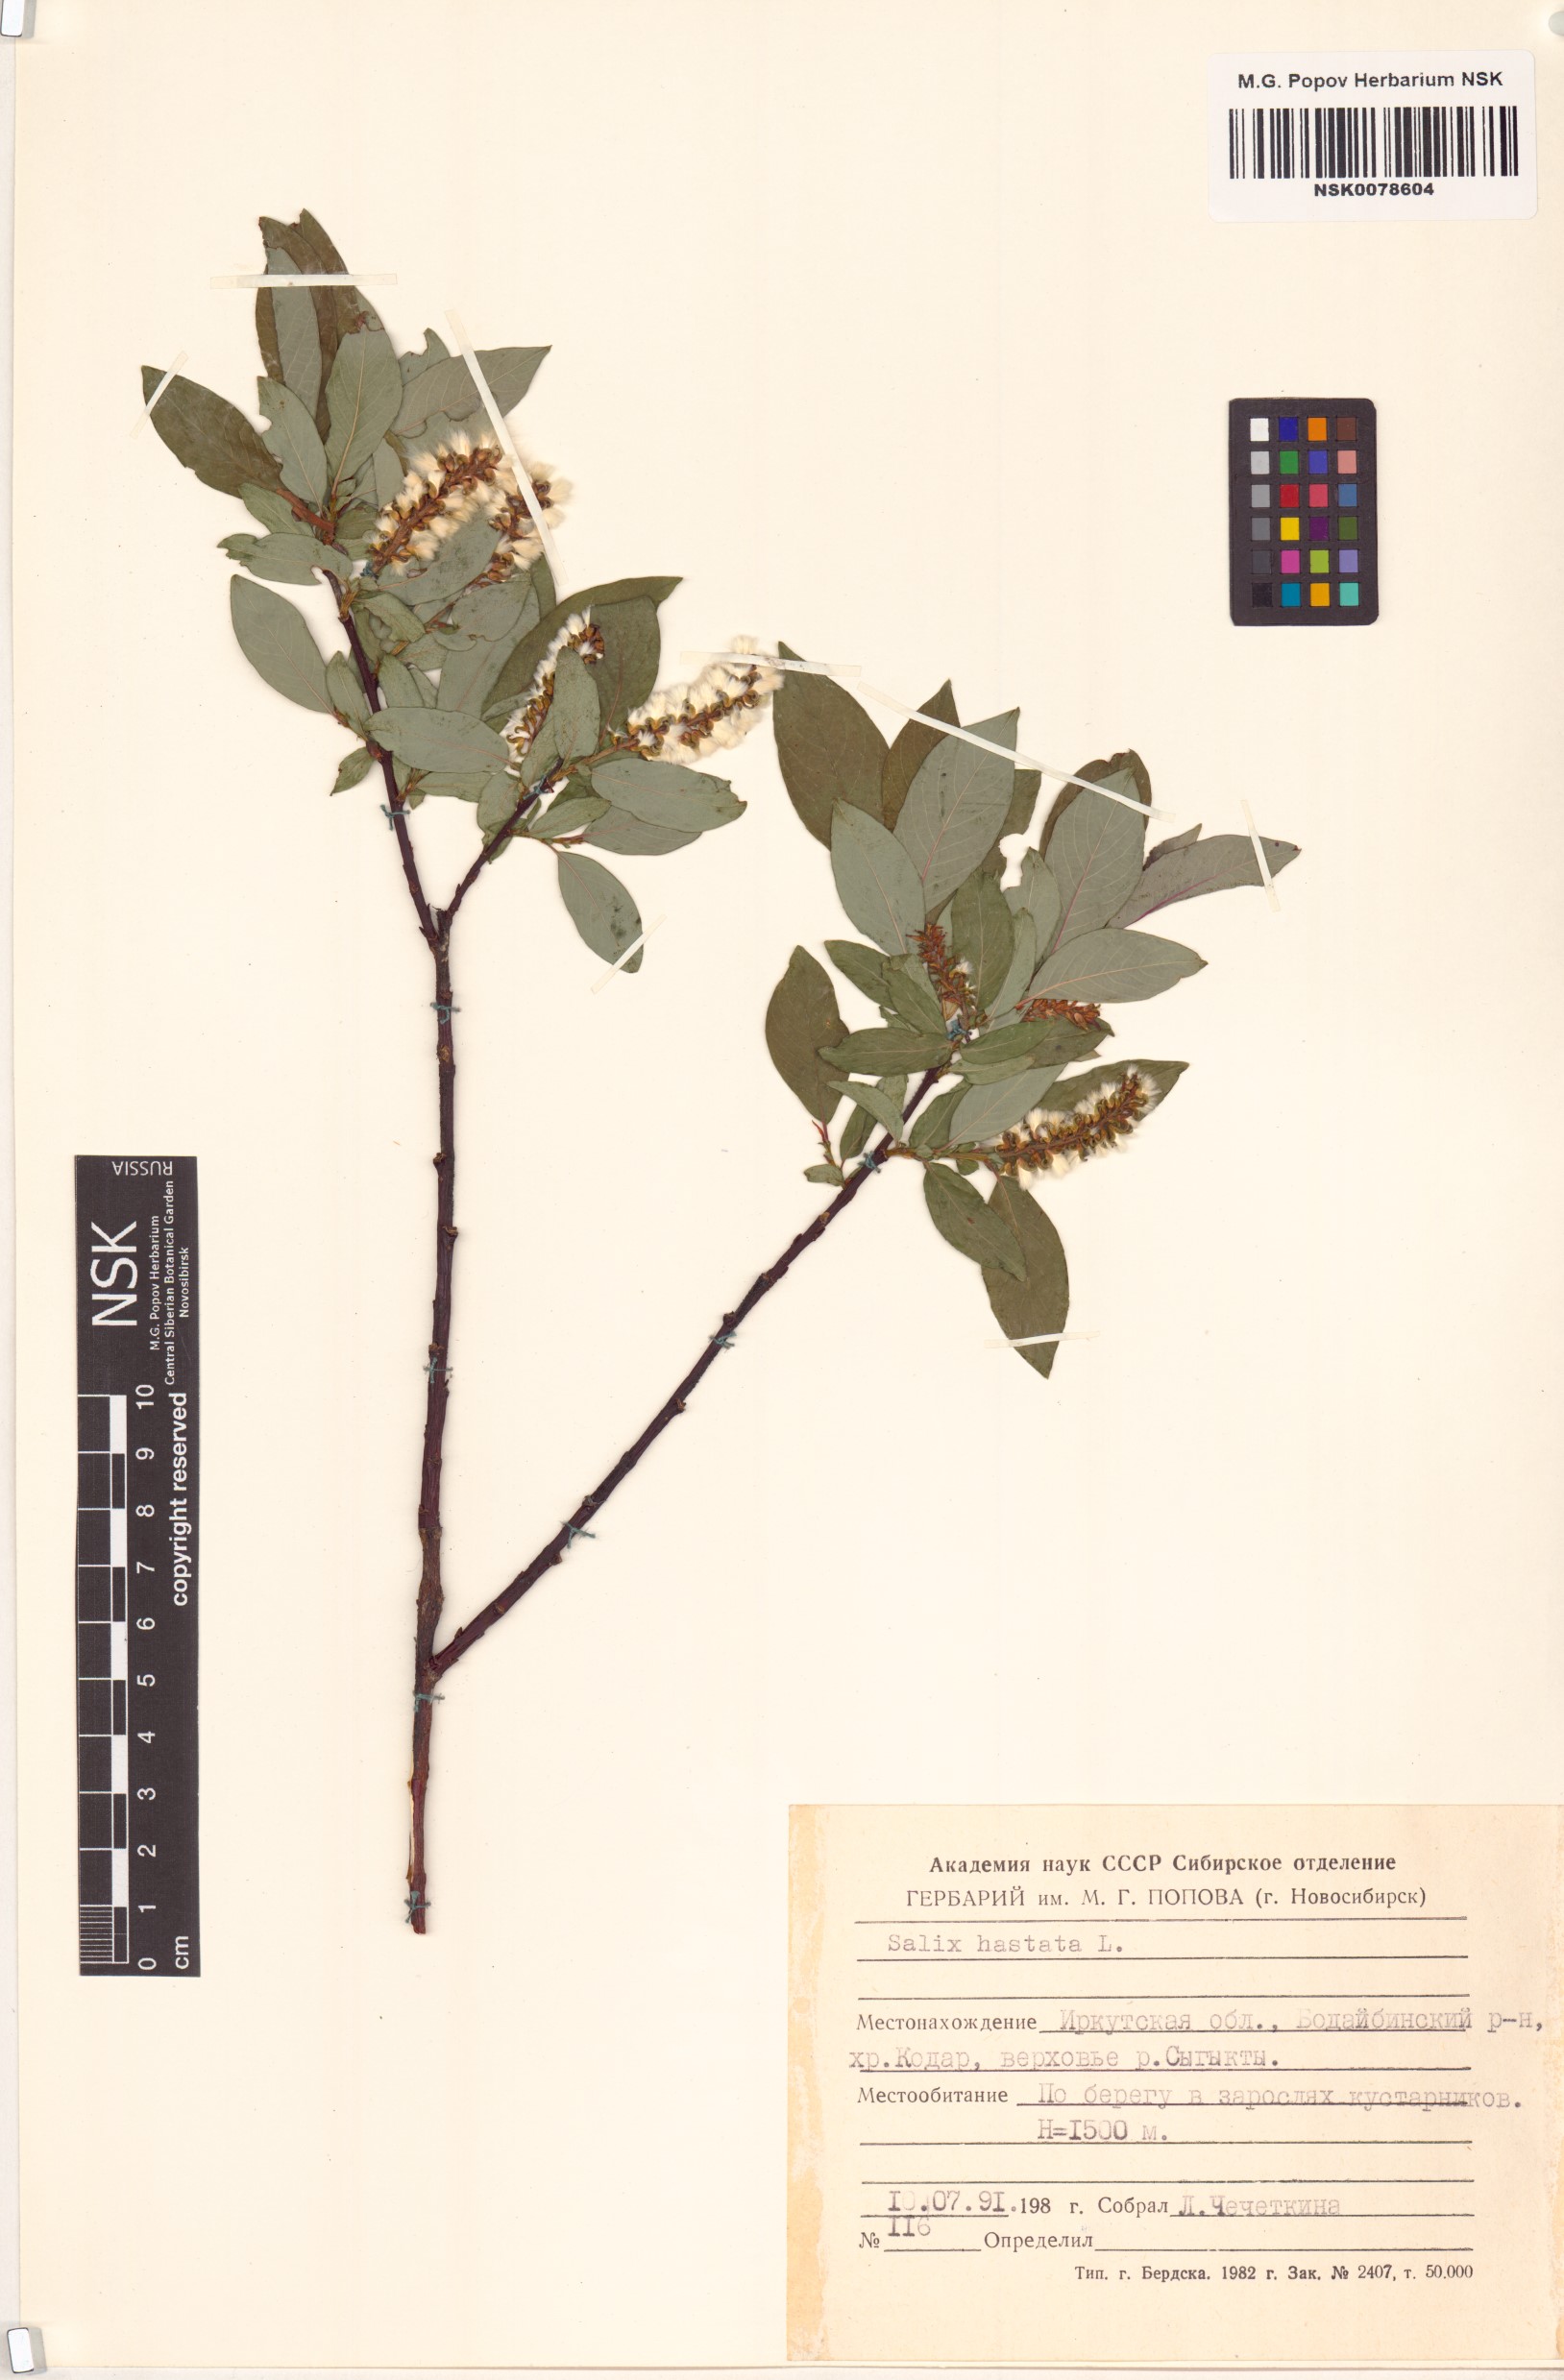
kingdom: Plantae
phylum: Tracheophyta
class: Magnoliopsida
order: Malpighiales
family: Salicaceae
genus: Salix
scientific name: Salix hastata
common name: Halberd willow
